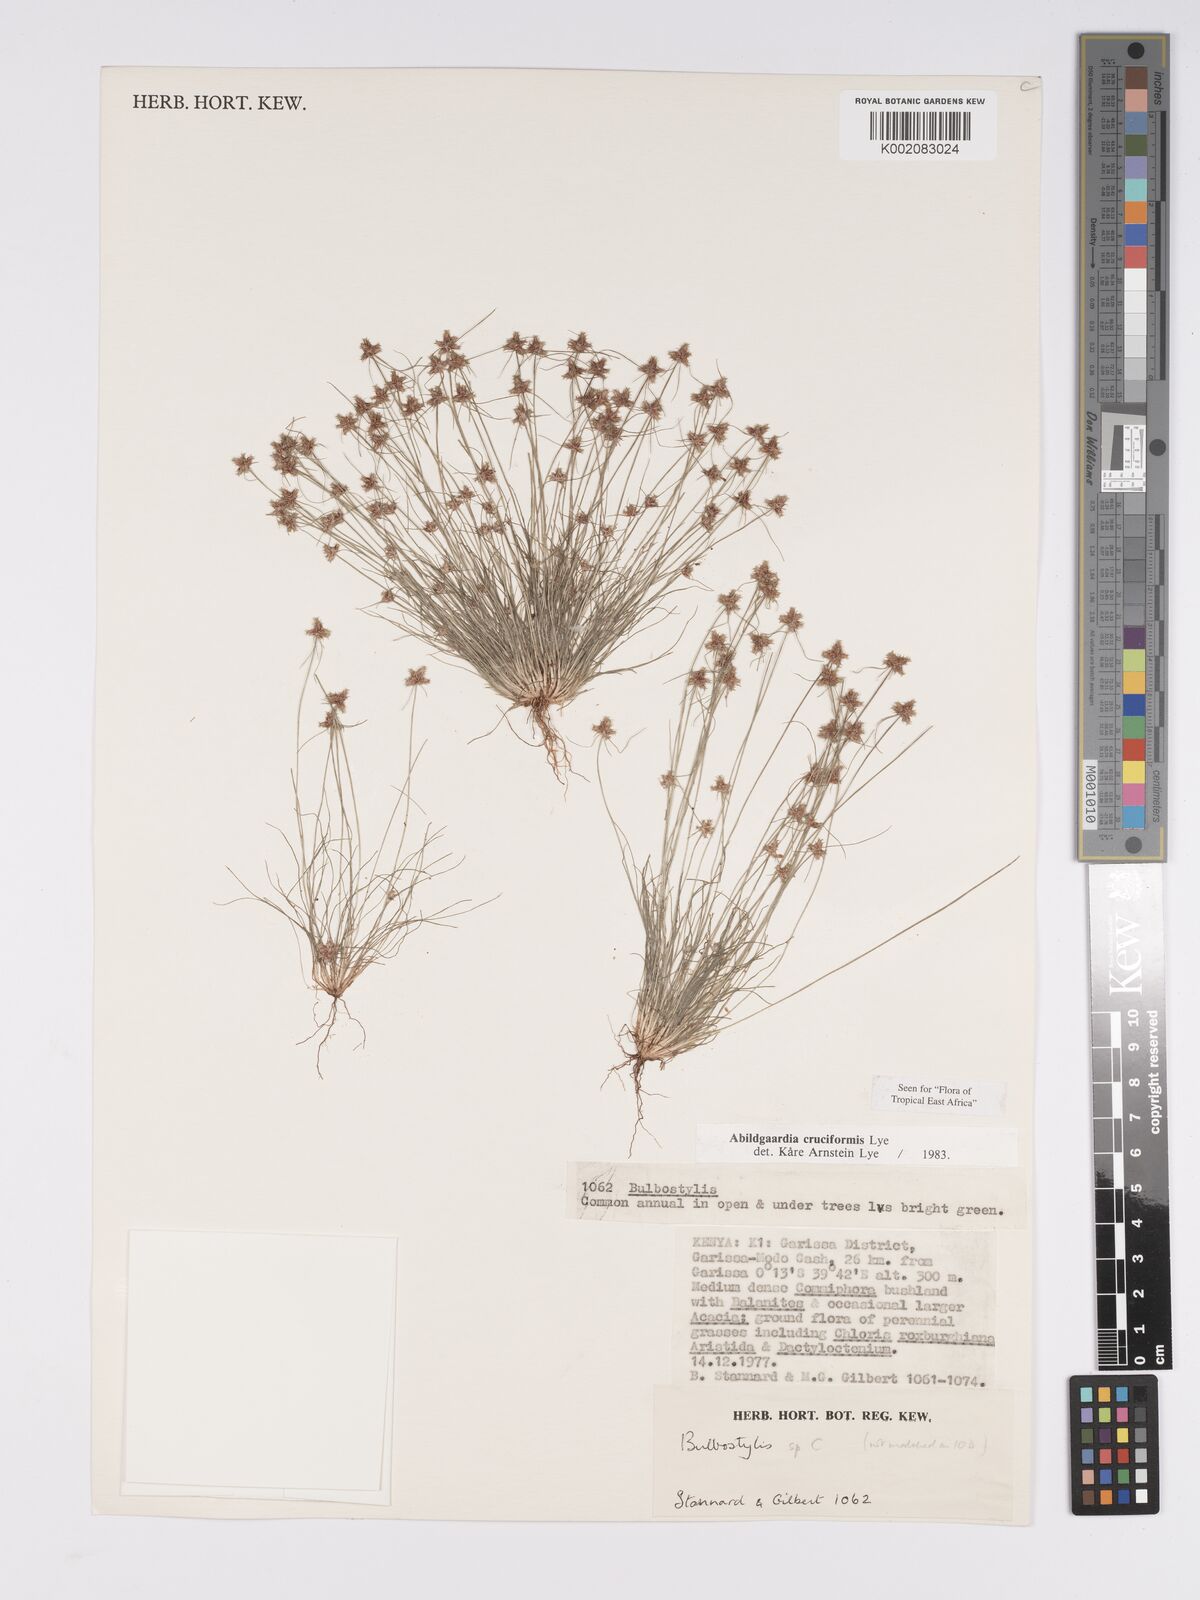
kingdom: Plantae
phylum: Tracheophyta
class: Liliopsida
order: Poales
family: Cyperaceae
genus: Bulbostylis
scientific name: Bulbostylis cruciformis
